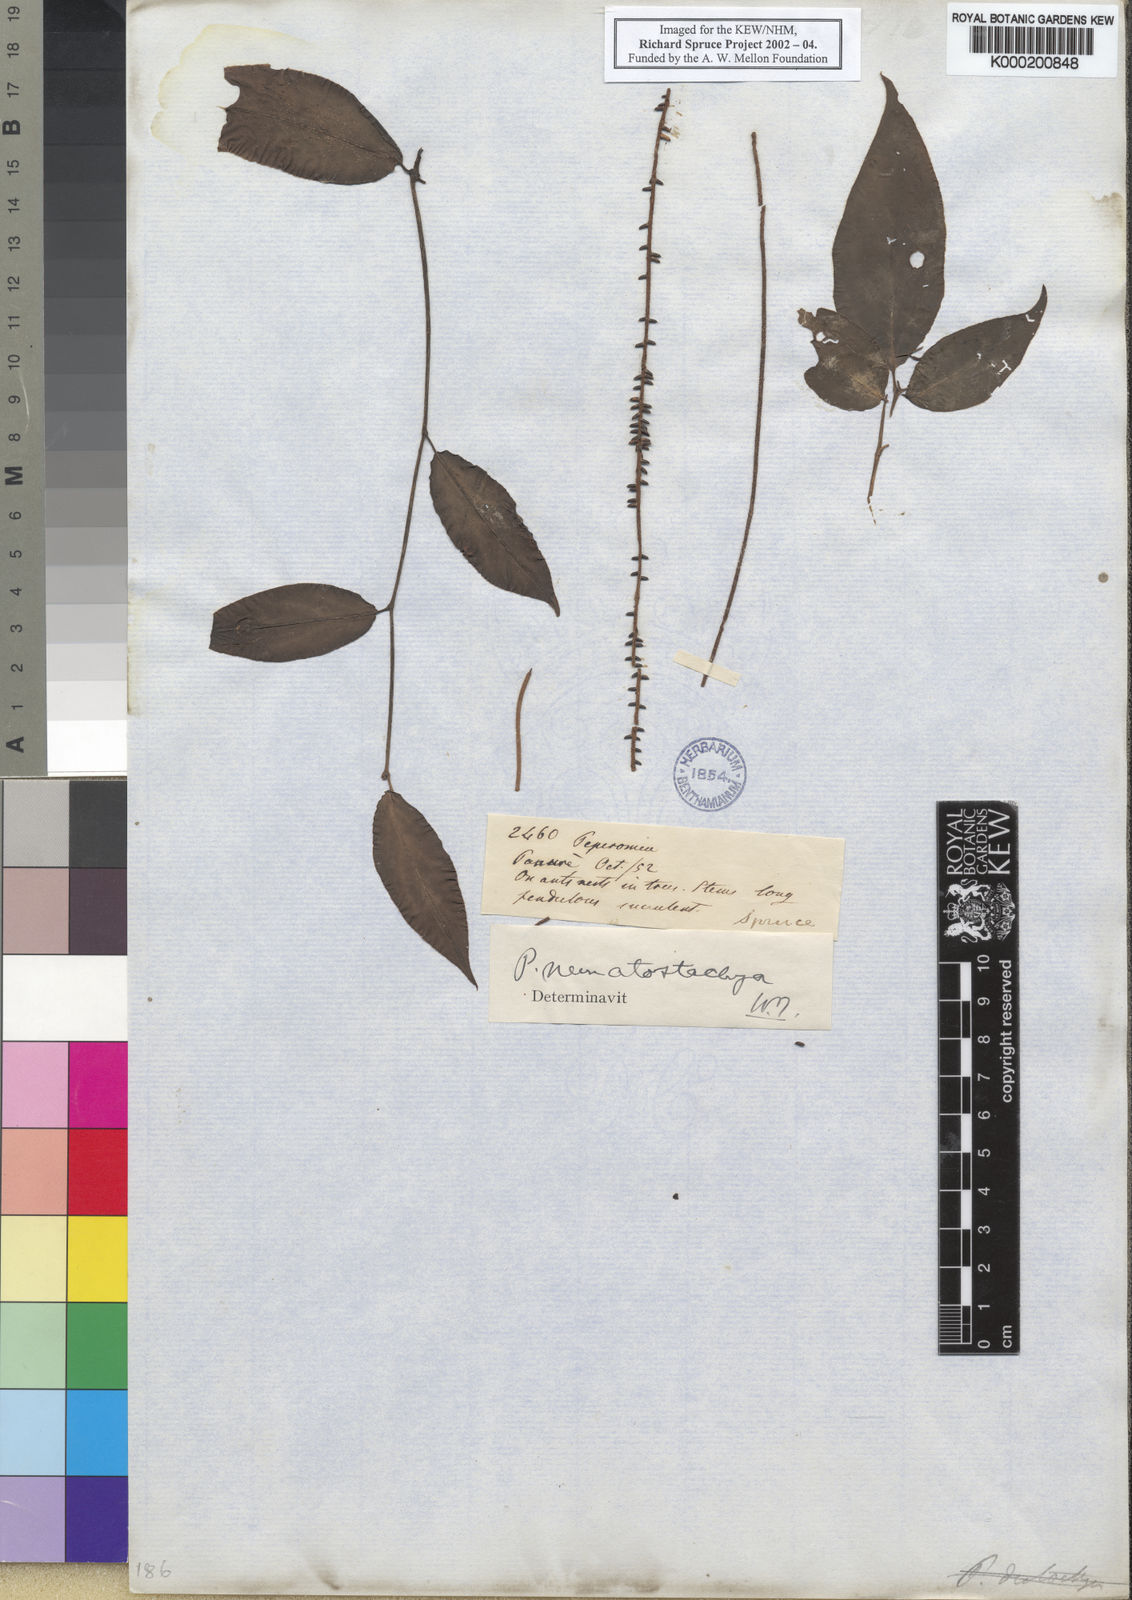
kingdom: Plantae
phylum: Tracheophyta
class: Magnoliopsida
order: Piperales
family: Piperaceae
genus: Peperomia
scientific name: Peperomia macrostachyos
